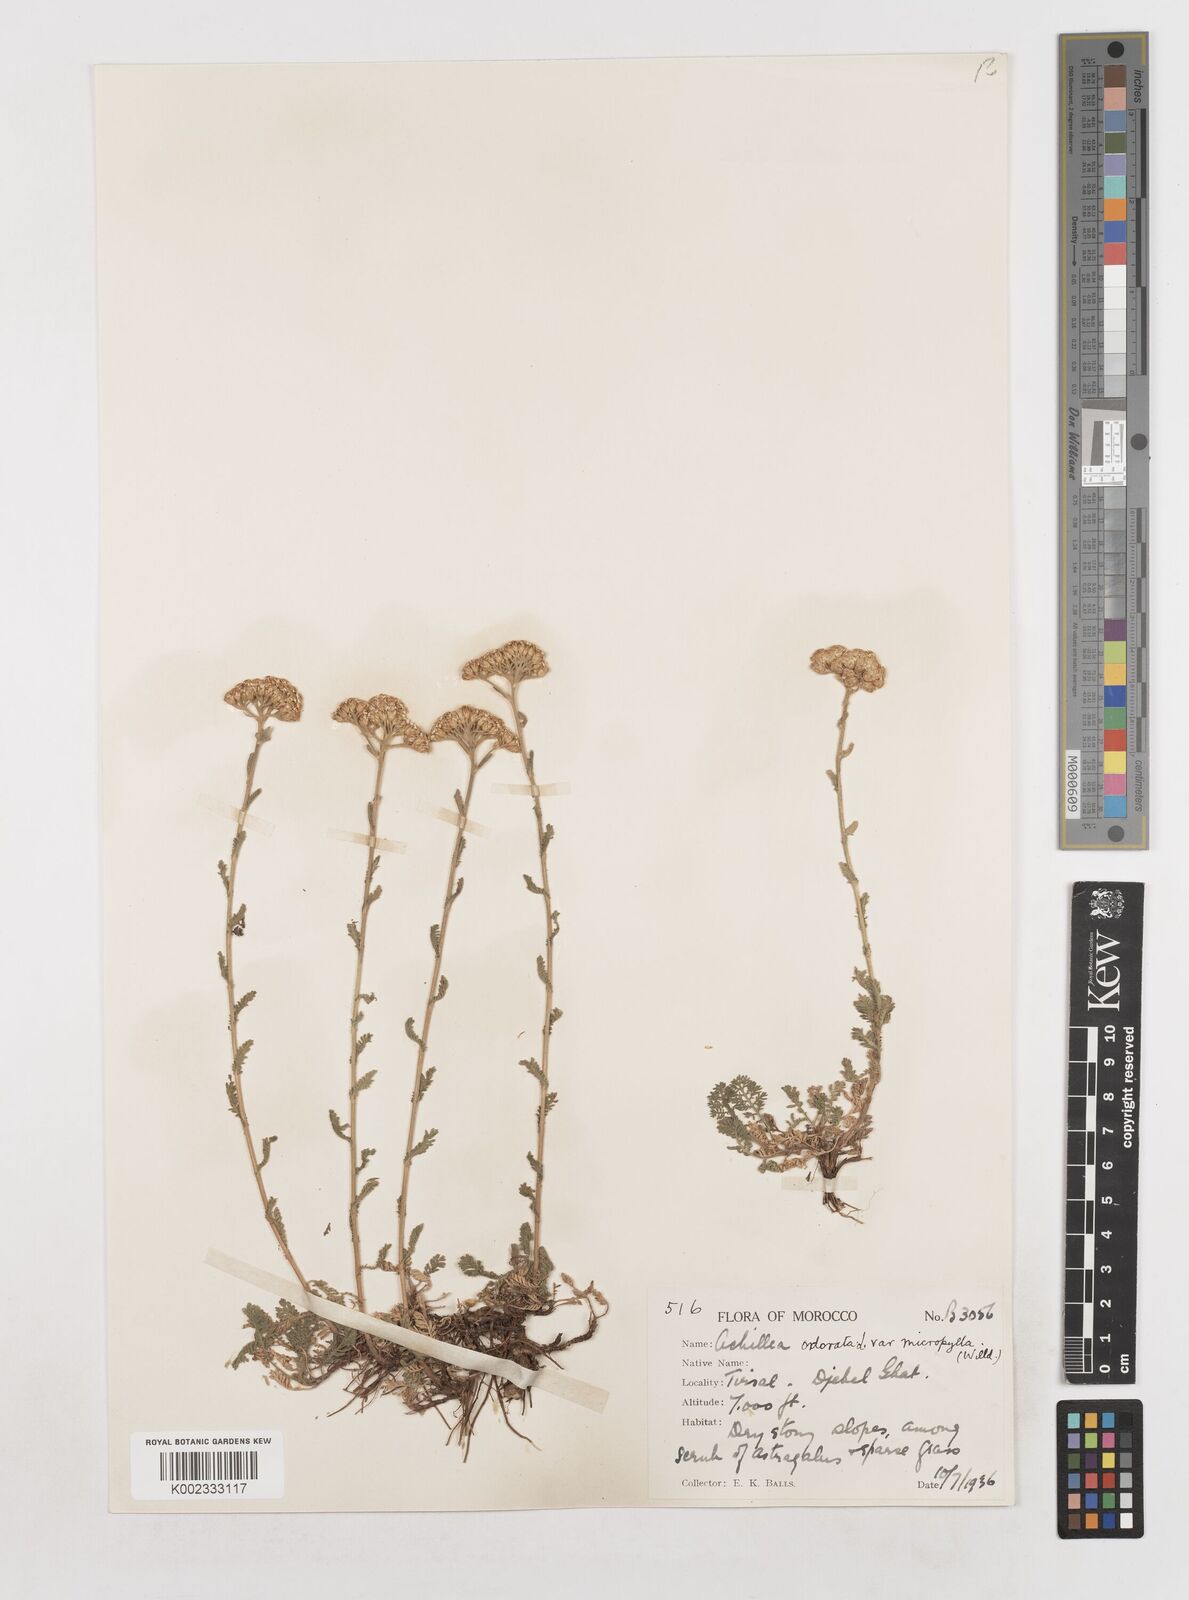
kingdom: Plantae
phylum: Tracheophyta
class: Magnoliopsida
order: Asterales
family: Asteraceae
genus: Achillea
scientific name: Achillea odorata
